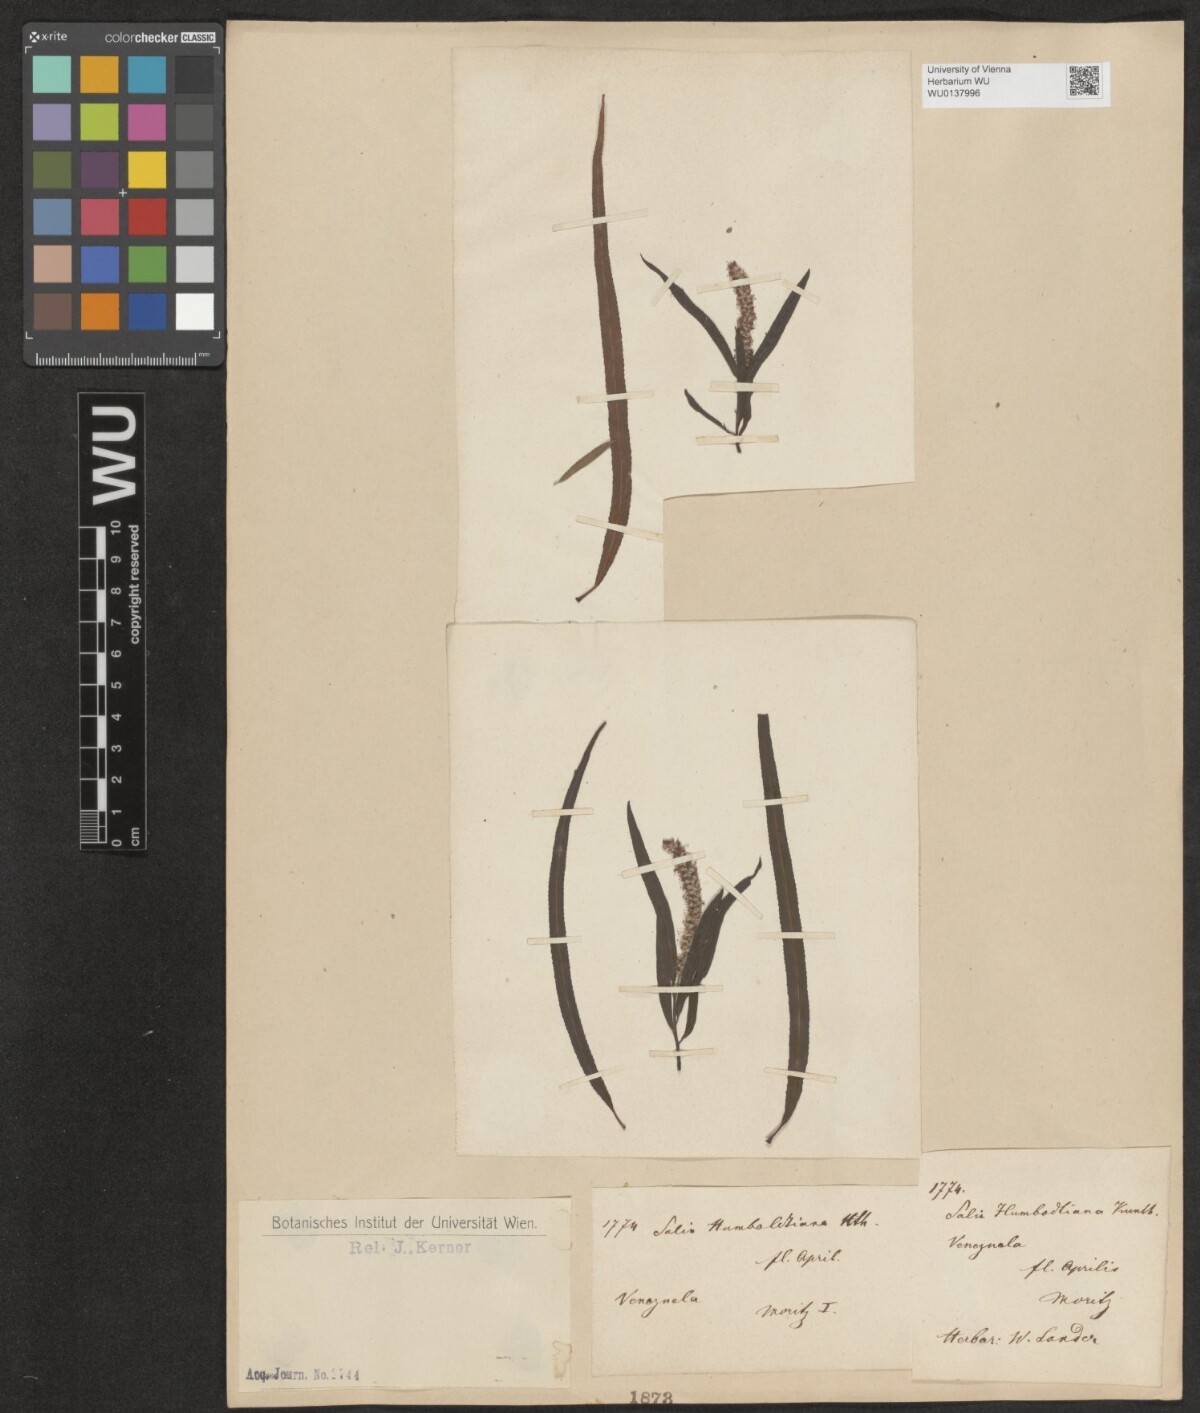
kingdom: Plantae
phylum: Tracheophyta
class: Magnoliopsida
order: Malpighiales
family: Salicaceae
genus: Salix
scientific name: Salix humboldtiana
